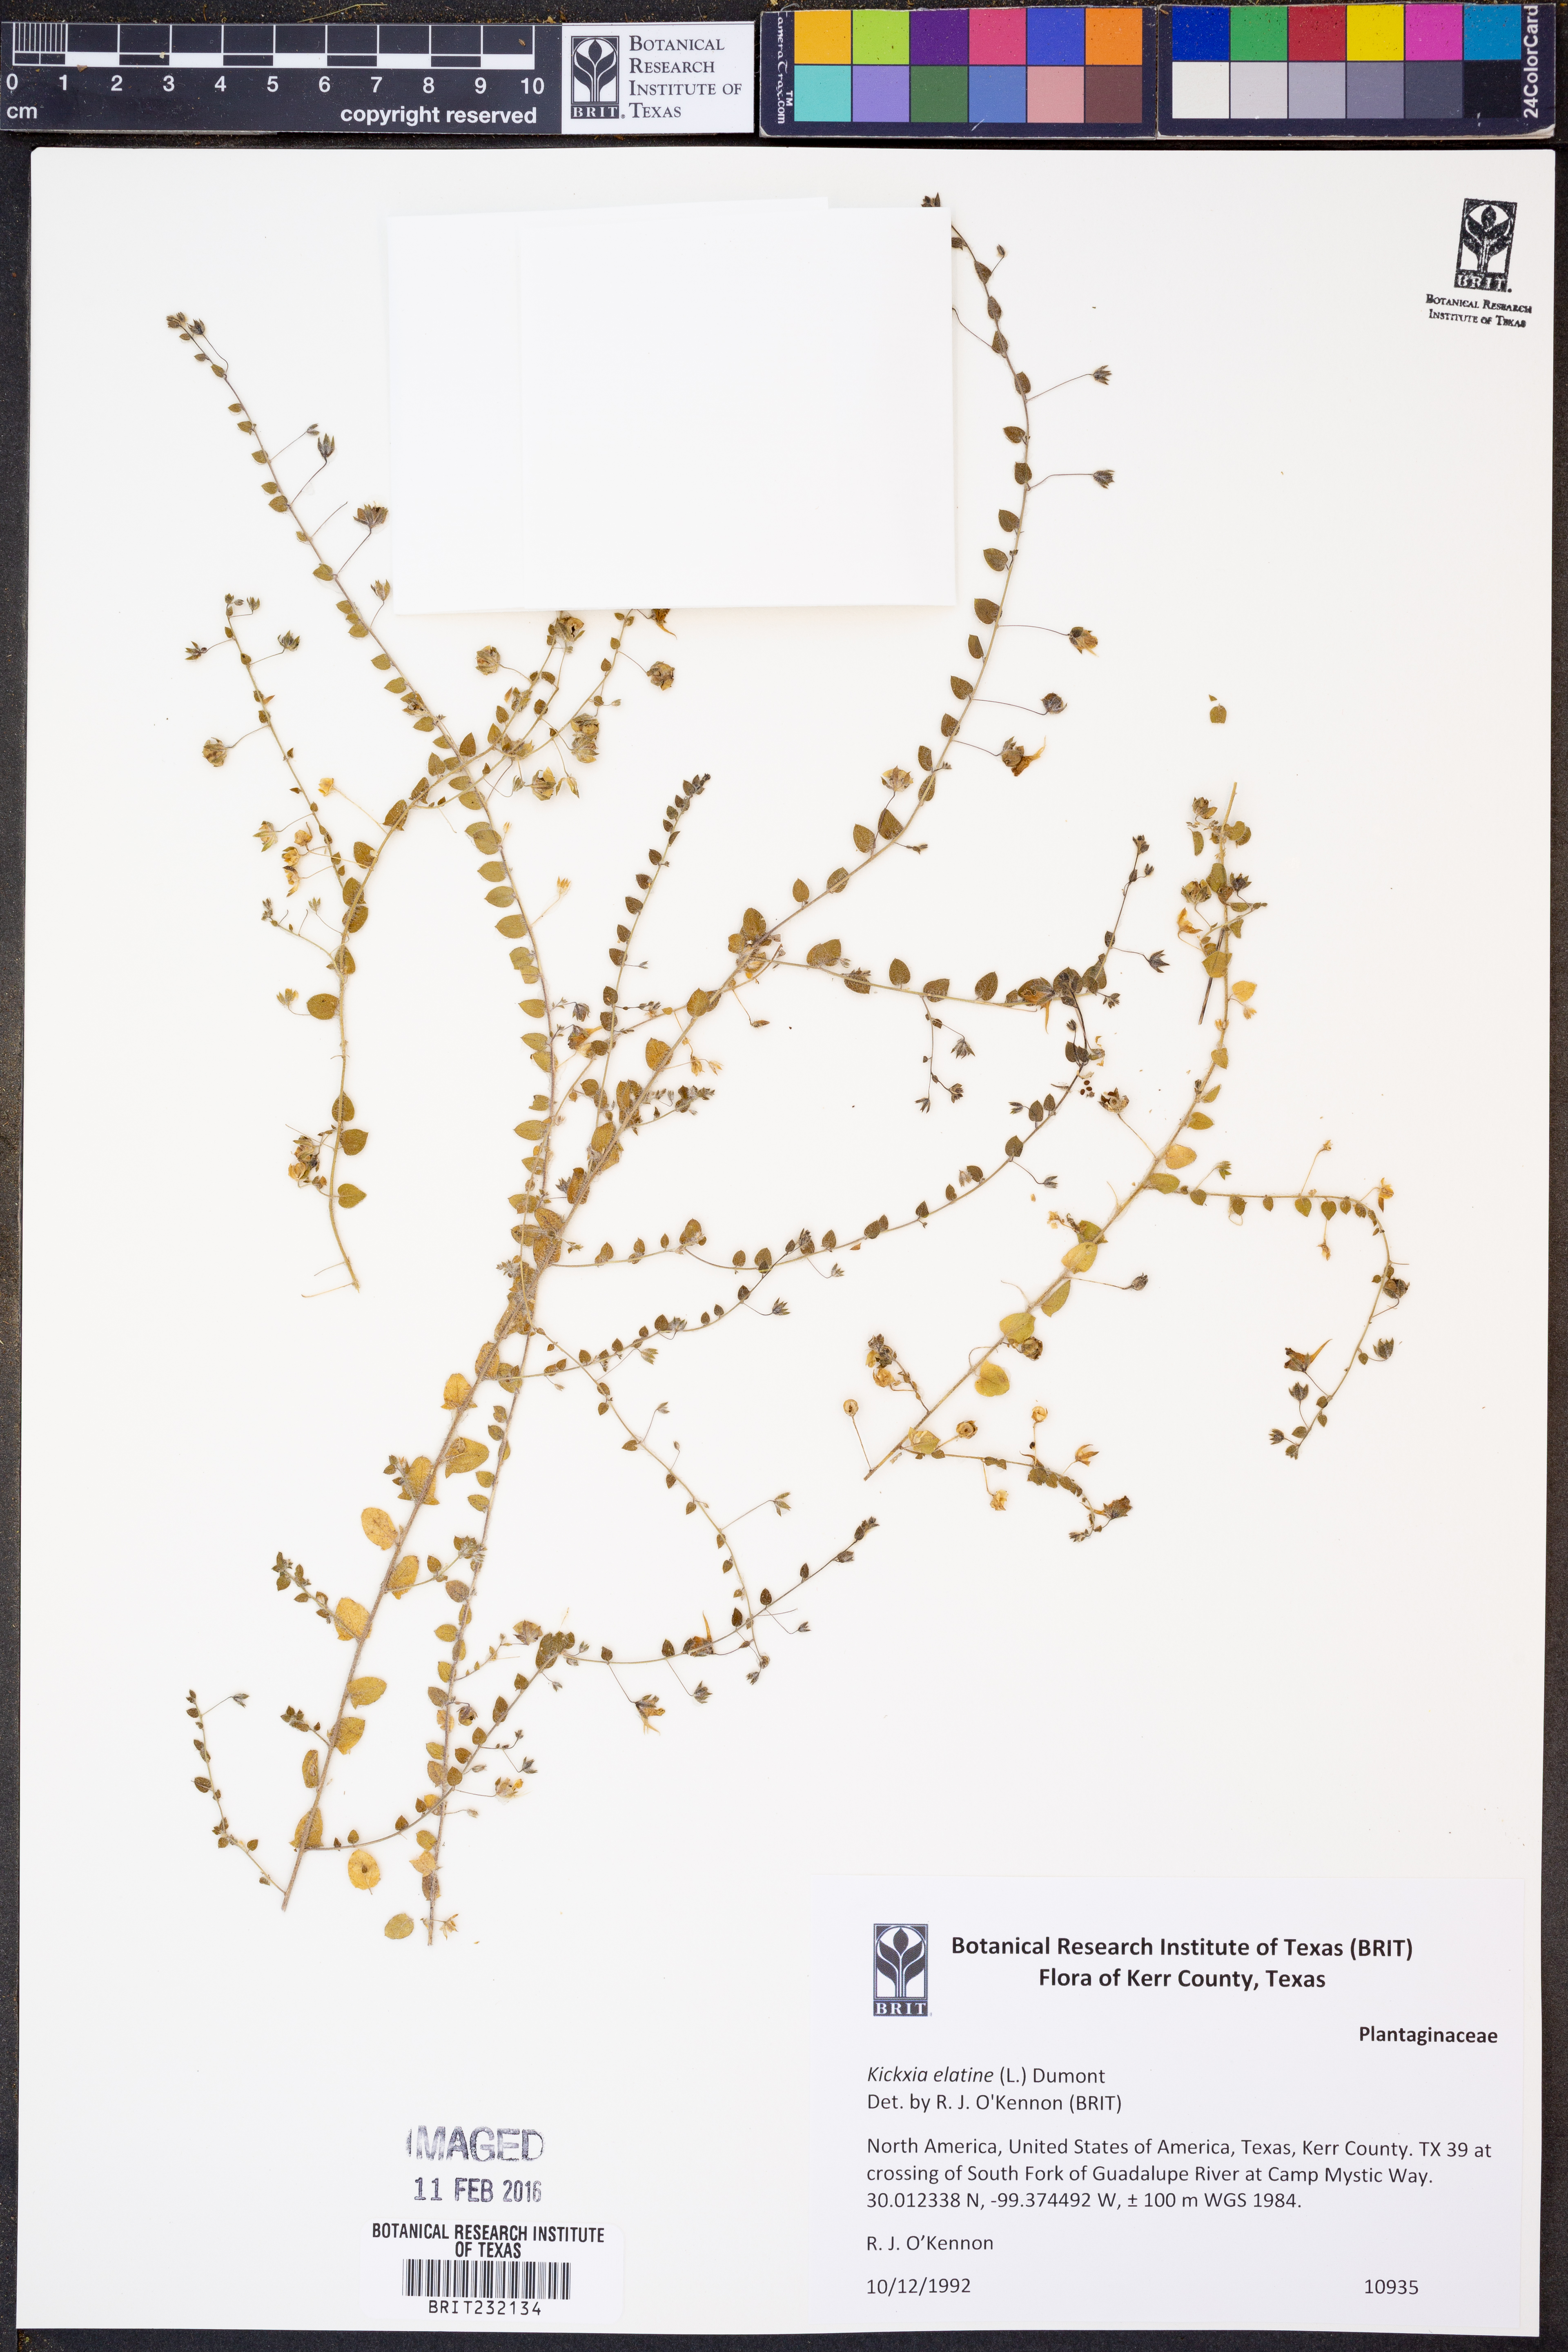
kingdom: Plantae
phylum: Tracheophyta
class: Magnoliopsida
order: Lamiales
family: Plantaginaceae
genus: Kickxia
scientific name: Kickxia elatine
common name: Sharp-leaved fluellen
